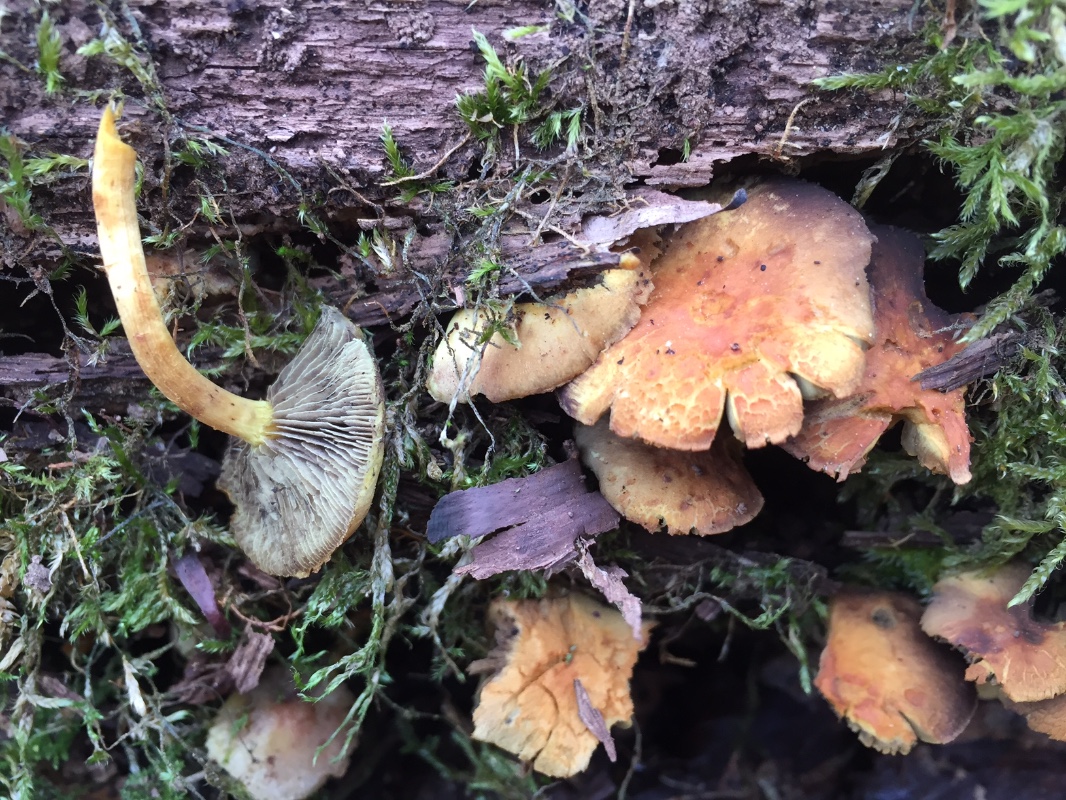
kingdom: Fungi
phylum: Basidiomycota
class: Agaricomycetes
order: Agaricales
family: Strophariaceae
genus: Hypholoma
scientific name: Hypholoma fasciculare
